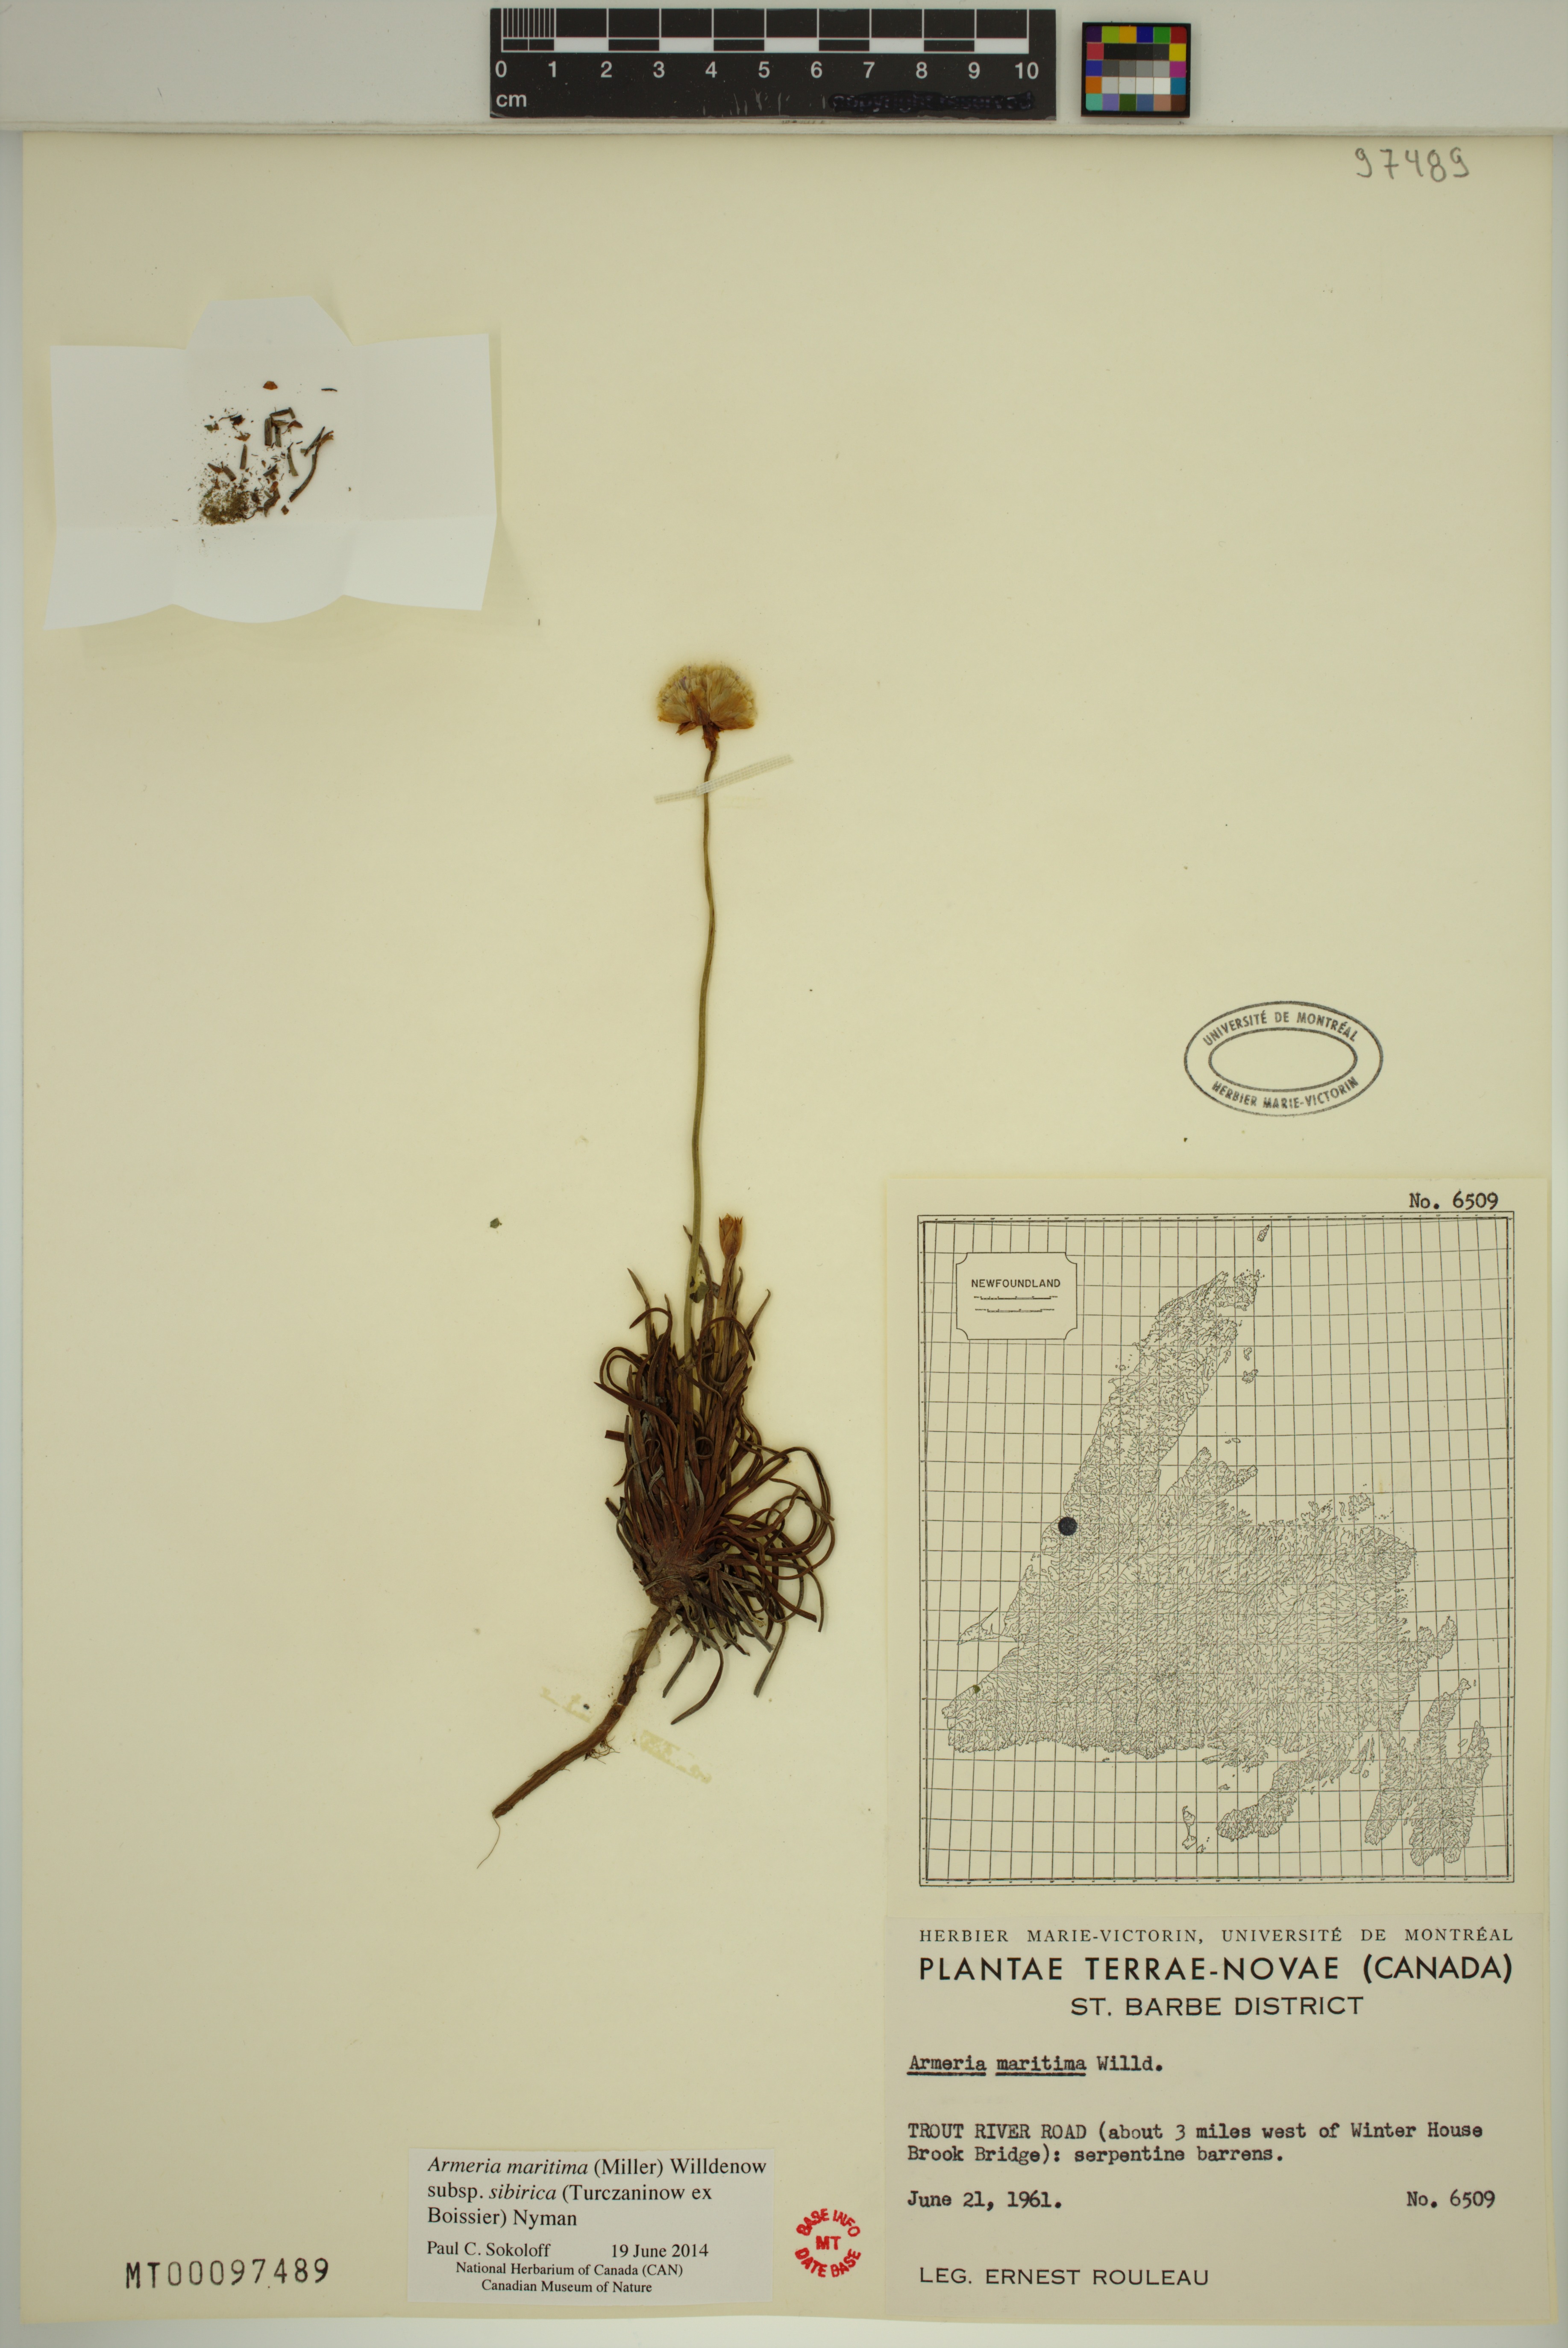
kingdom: Plantae
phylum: Tracheophyta
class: Magnoliopsida
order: Caryophyllales
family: Plumbaginaceae
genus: Armeria
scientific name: Armeria maritima
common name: Thrift
